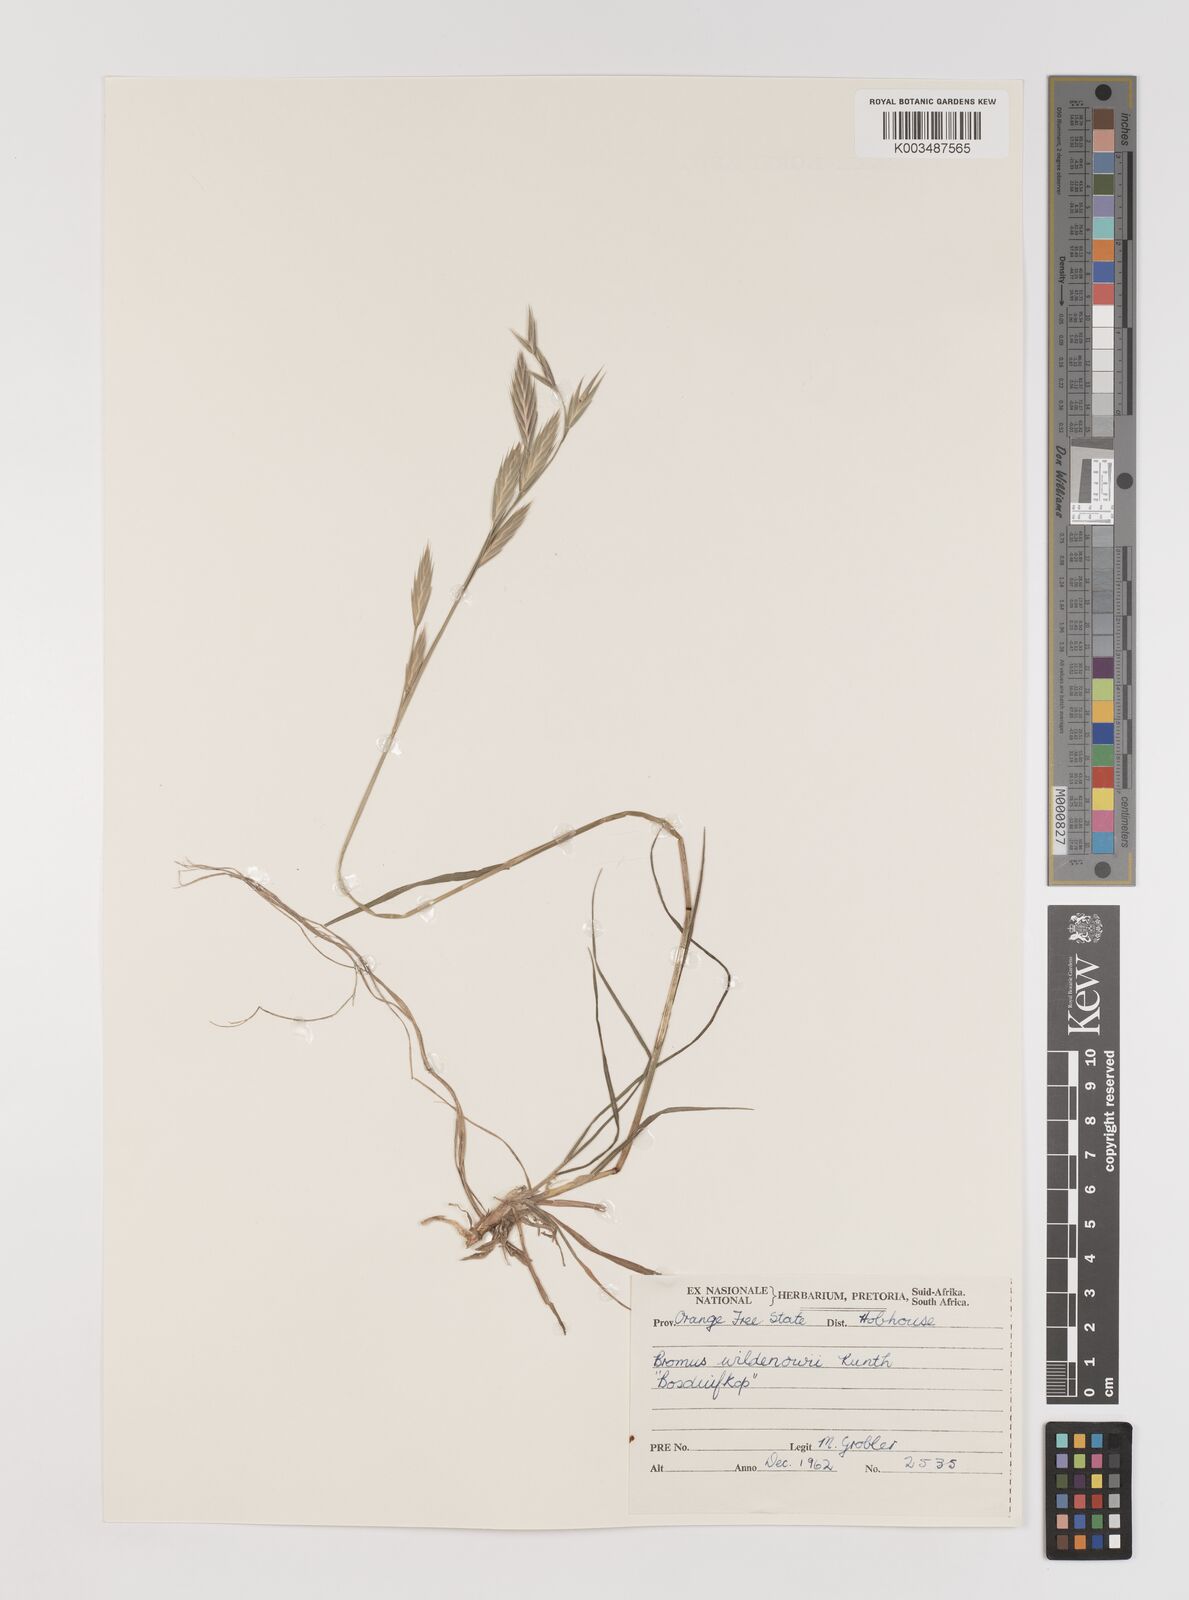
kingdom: Plantae
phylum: Tracheophyta
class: Liliopsida
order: Poales
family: Poaceae
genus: Bromus
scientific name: Bromus catharticus
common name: Rescuegrass
